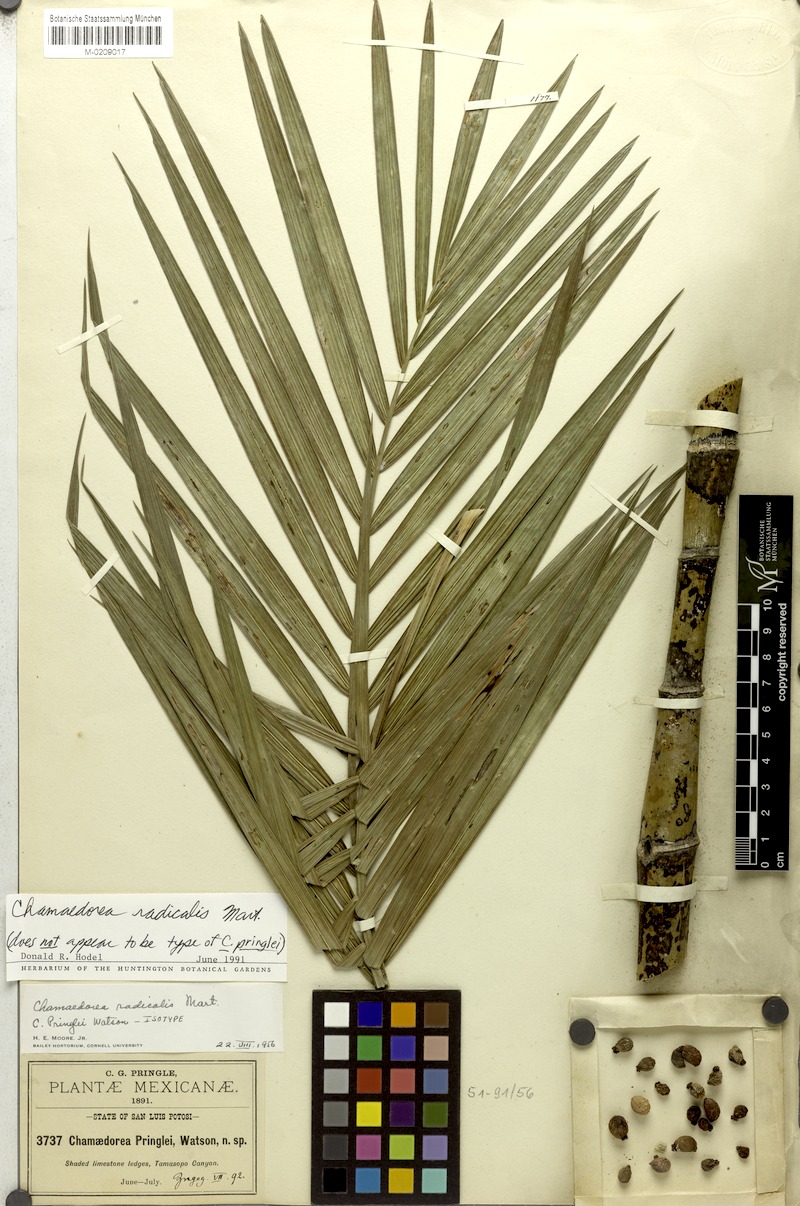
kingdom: Plantae
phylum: Tracheophyta
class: Liliopsida
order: Arecales
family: Arecaceae
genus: Chamaedorea
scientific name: Chamaedorea radicalis
